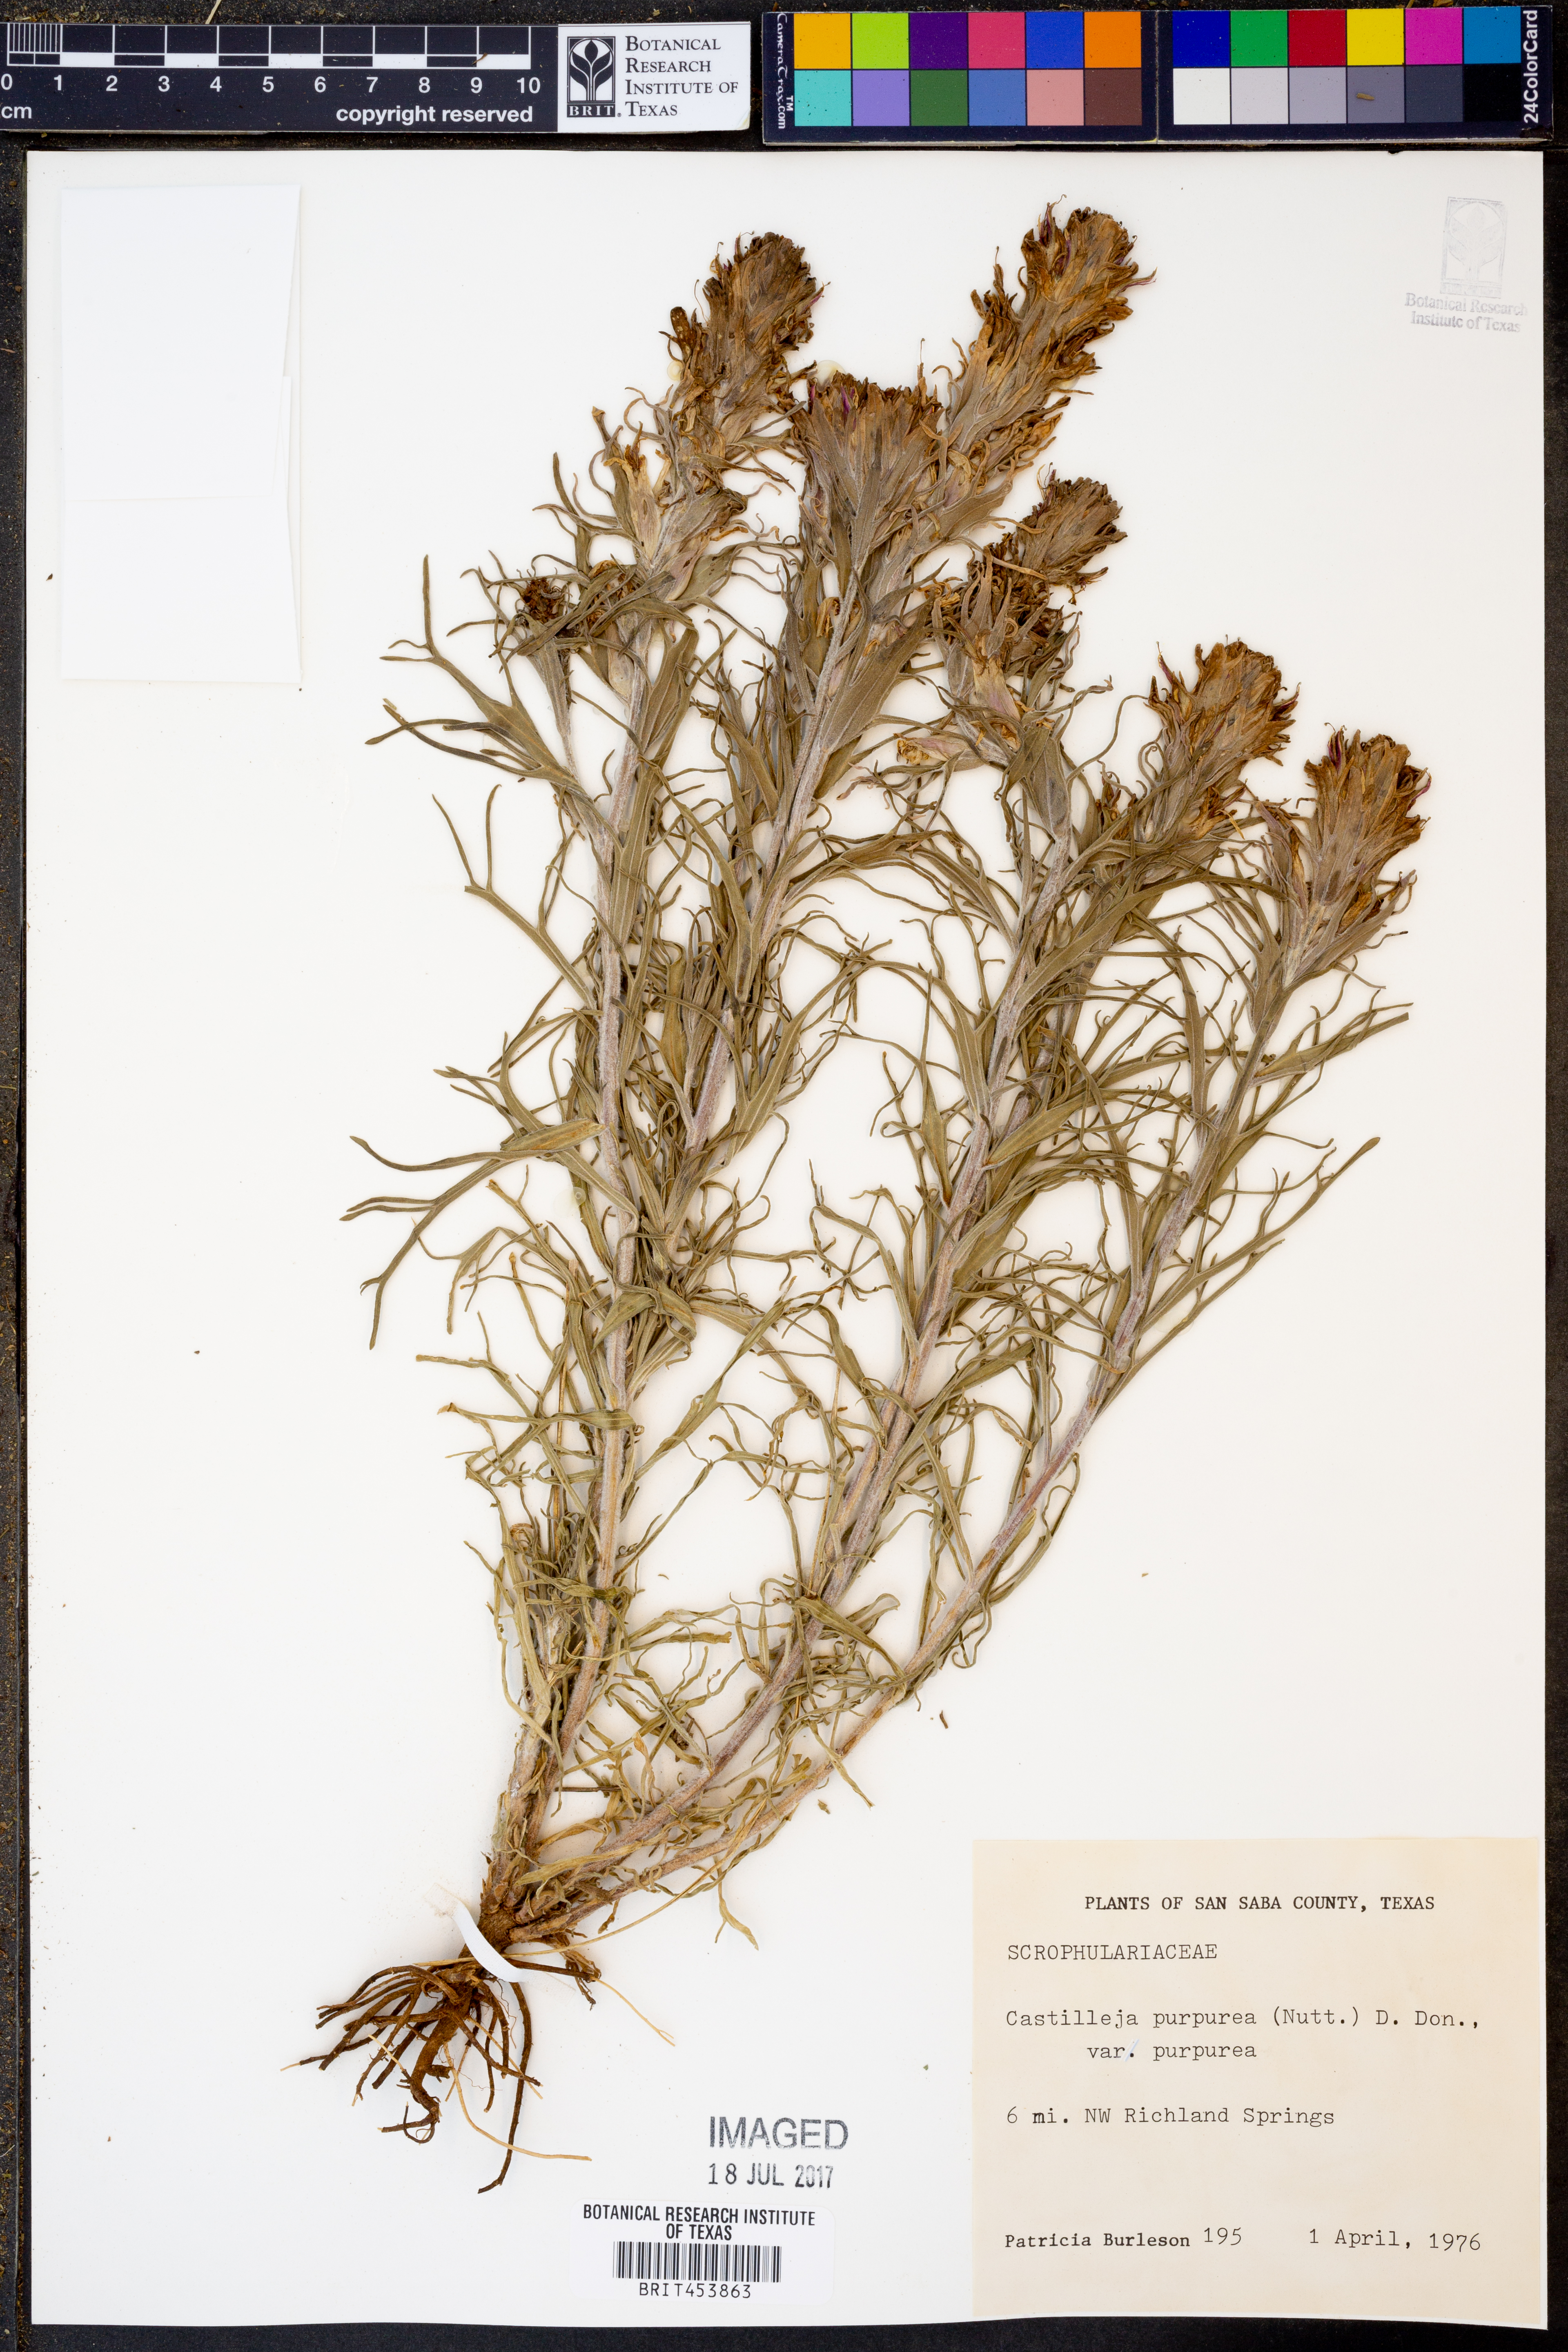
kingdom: Plantae
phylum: Tracheophyta
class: Magnoliopsida
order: Lamiales
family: Orobanchaceae
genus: Castilleja
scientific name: Castilleja purpurea
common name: Plains paintbrush
